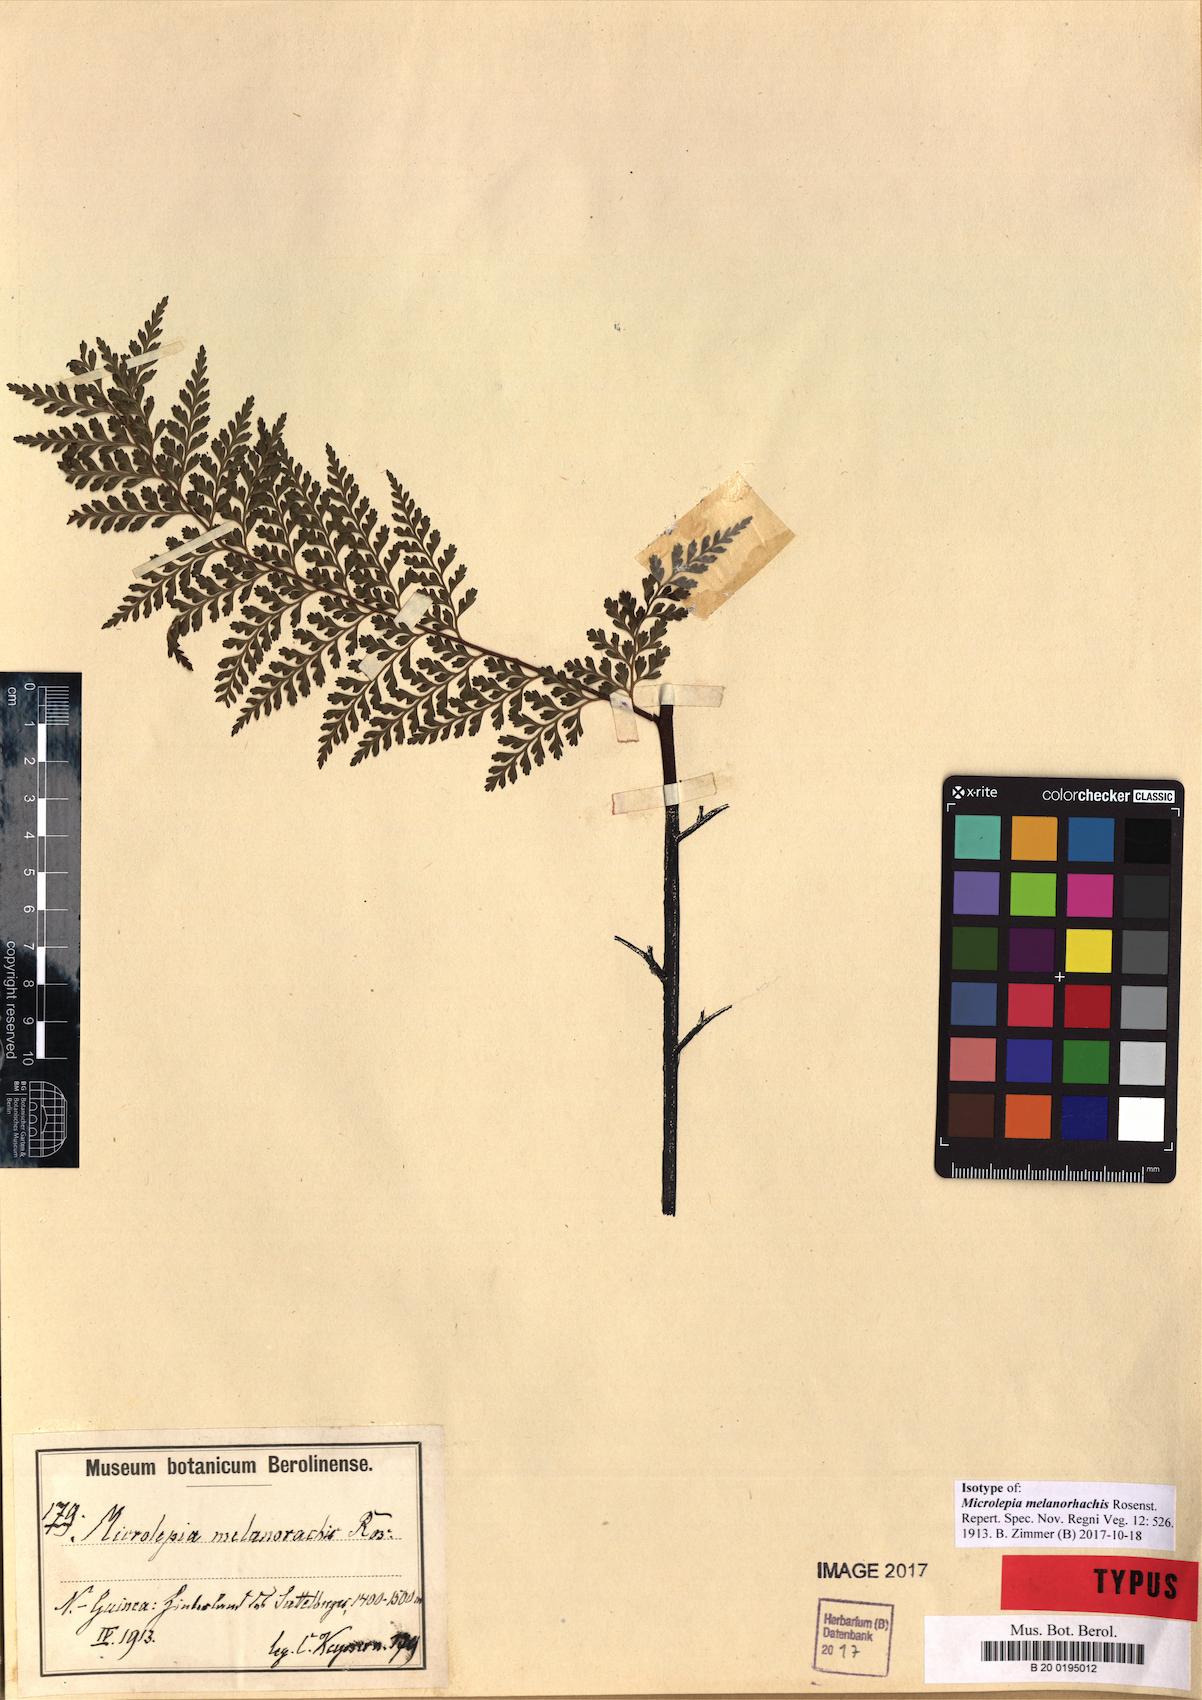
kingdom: Plantae
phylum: Tracheophyta
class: Polypodiopsida
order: Polypodiales
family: Dennstaedtiaceae
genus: Microlepia
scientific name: Microlepia melanorhachis
